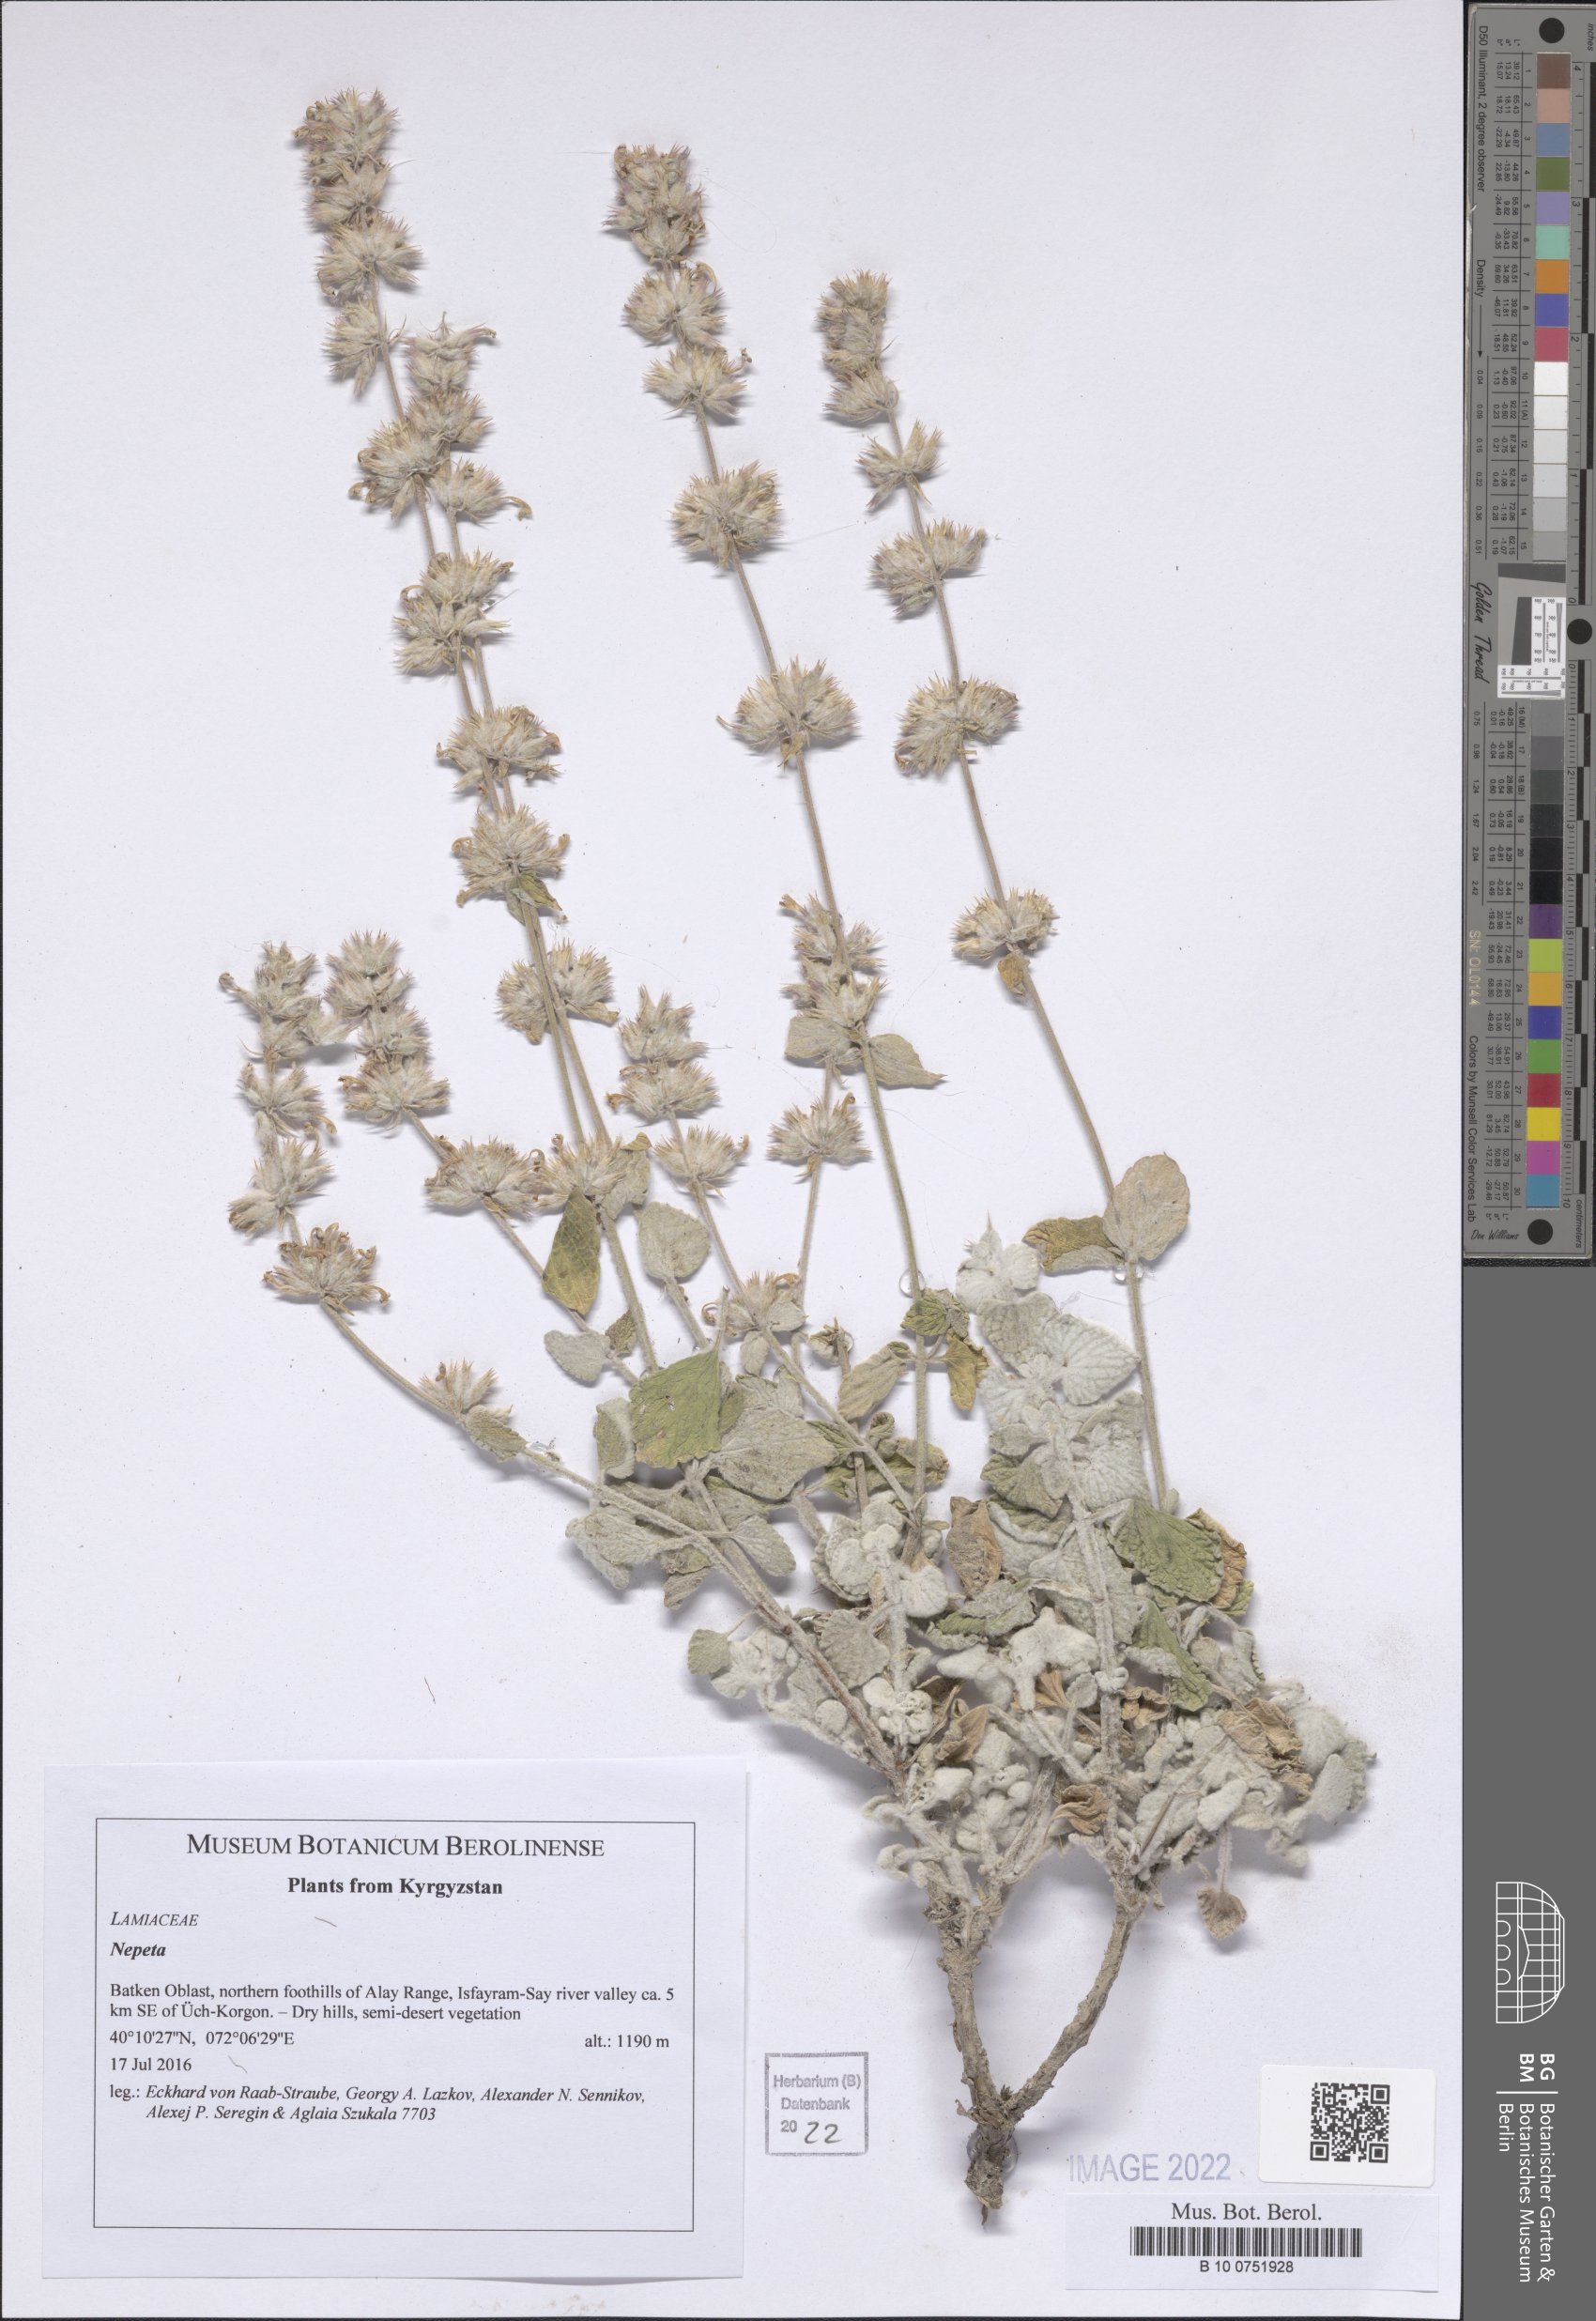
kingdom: Plantae
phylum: Tracheophyta
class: Magnoliopsida
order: Lamiales
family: Lamiaceae
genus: Nepeta
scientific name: Nepeta
